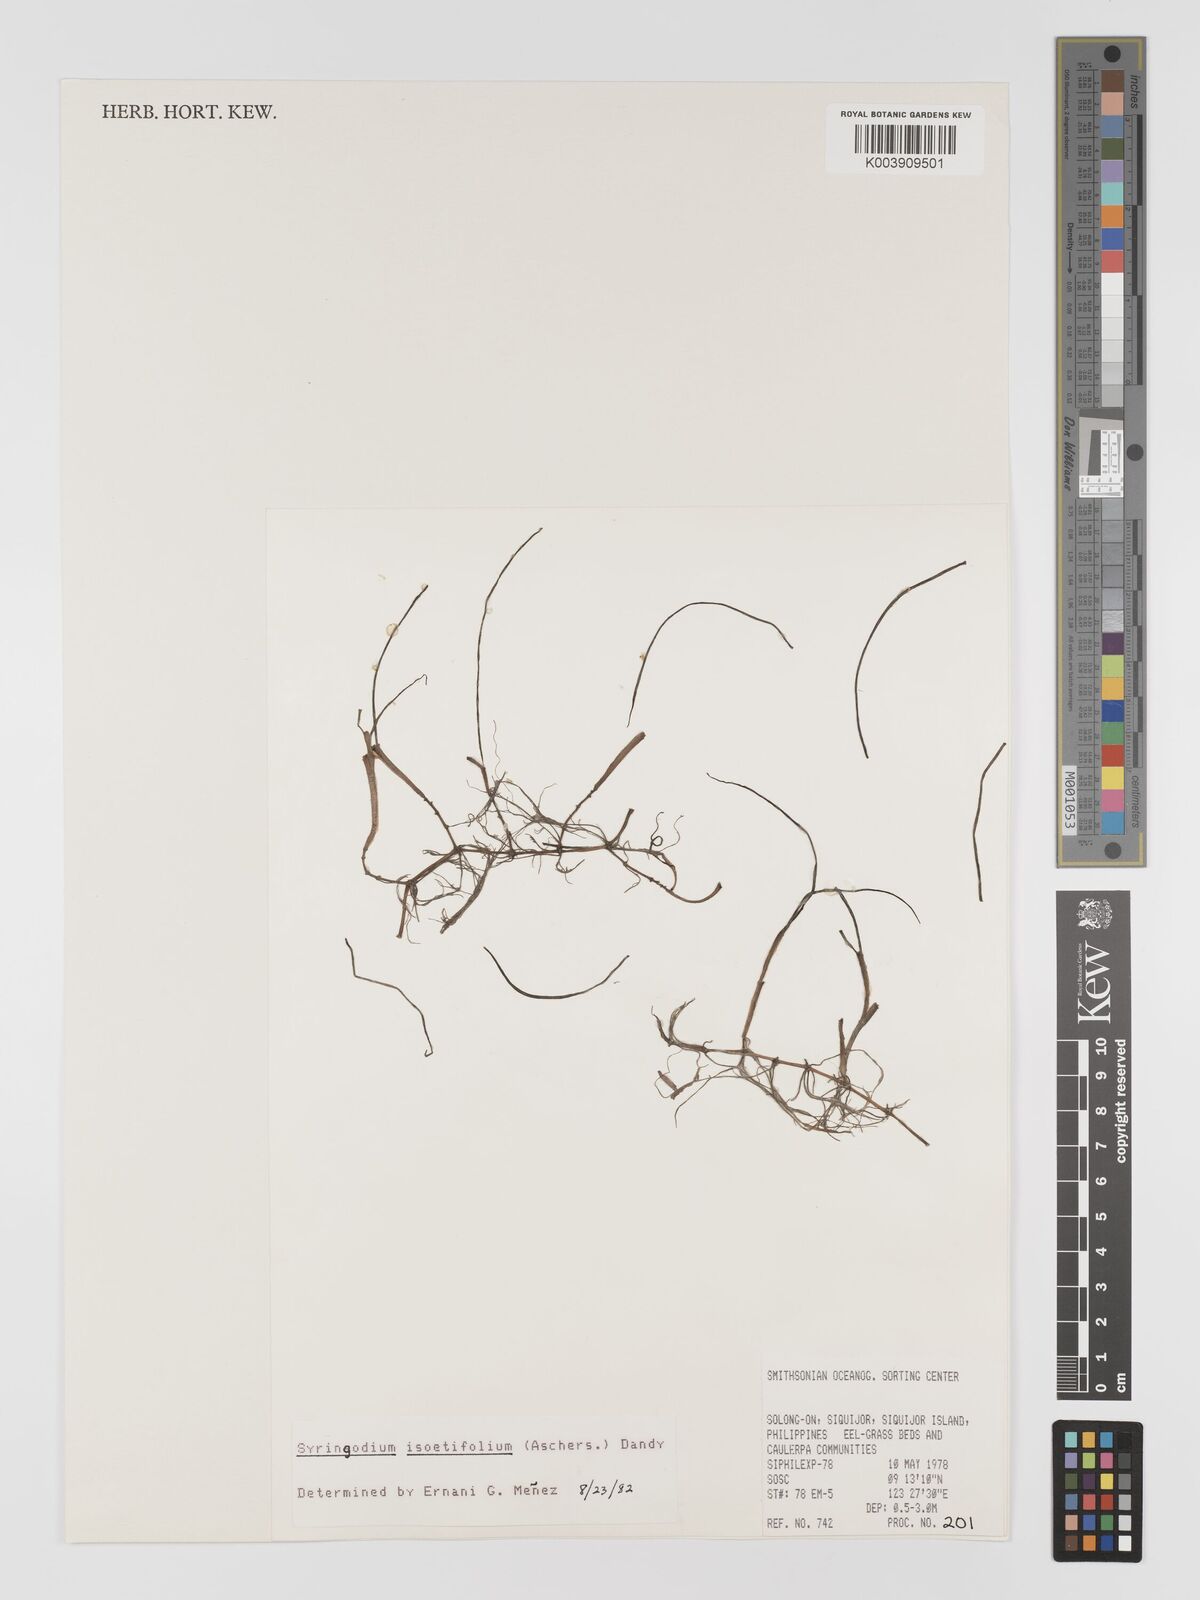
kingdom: Plantae
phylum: Tracheophyta
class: Liliopsida
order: Alismatales
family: Cymodoceaceae
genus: Syringodium
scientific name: Syringodium isoetifolium
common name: Species code: si
